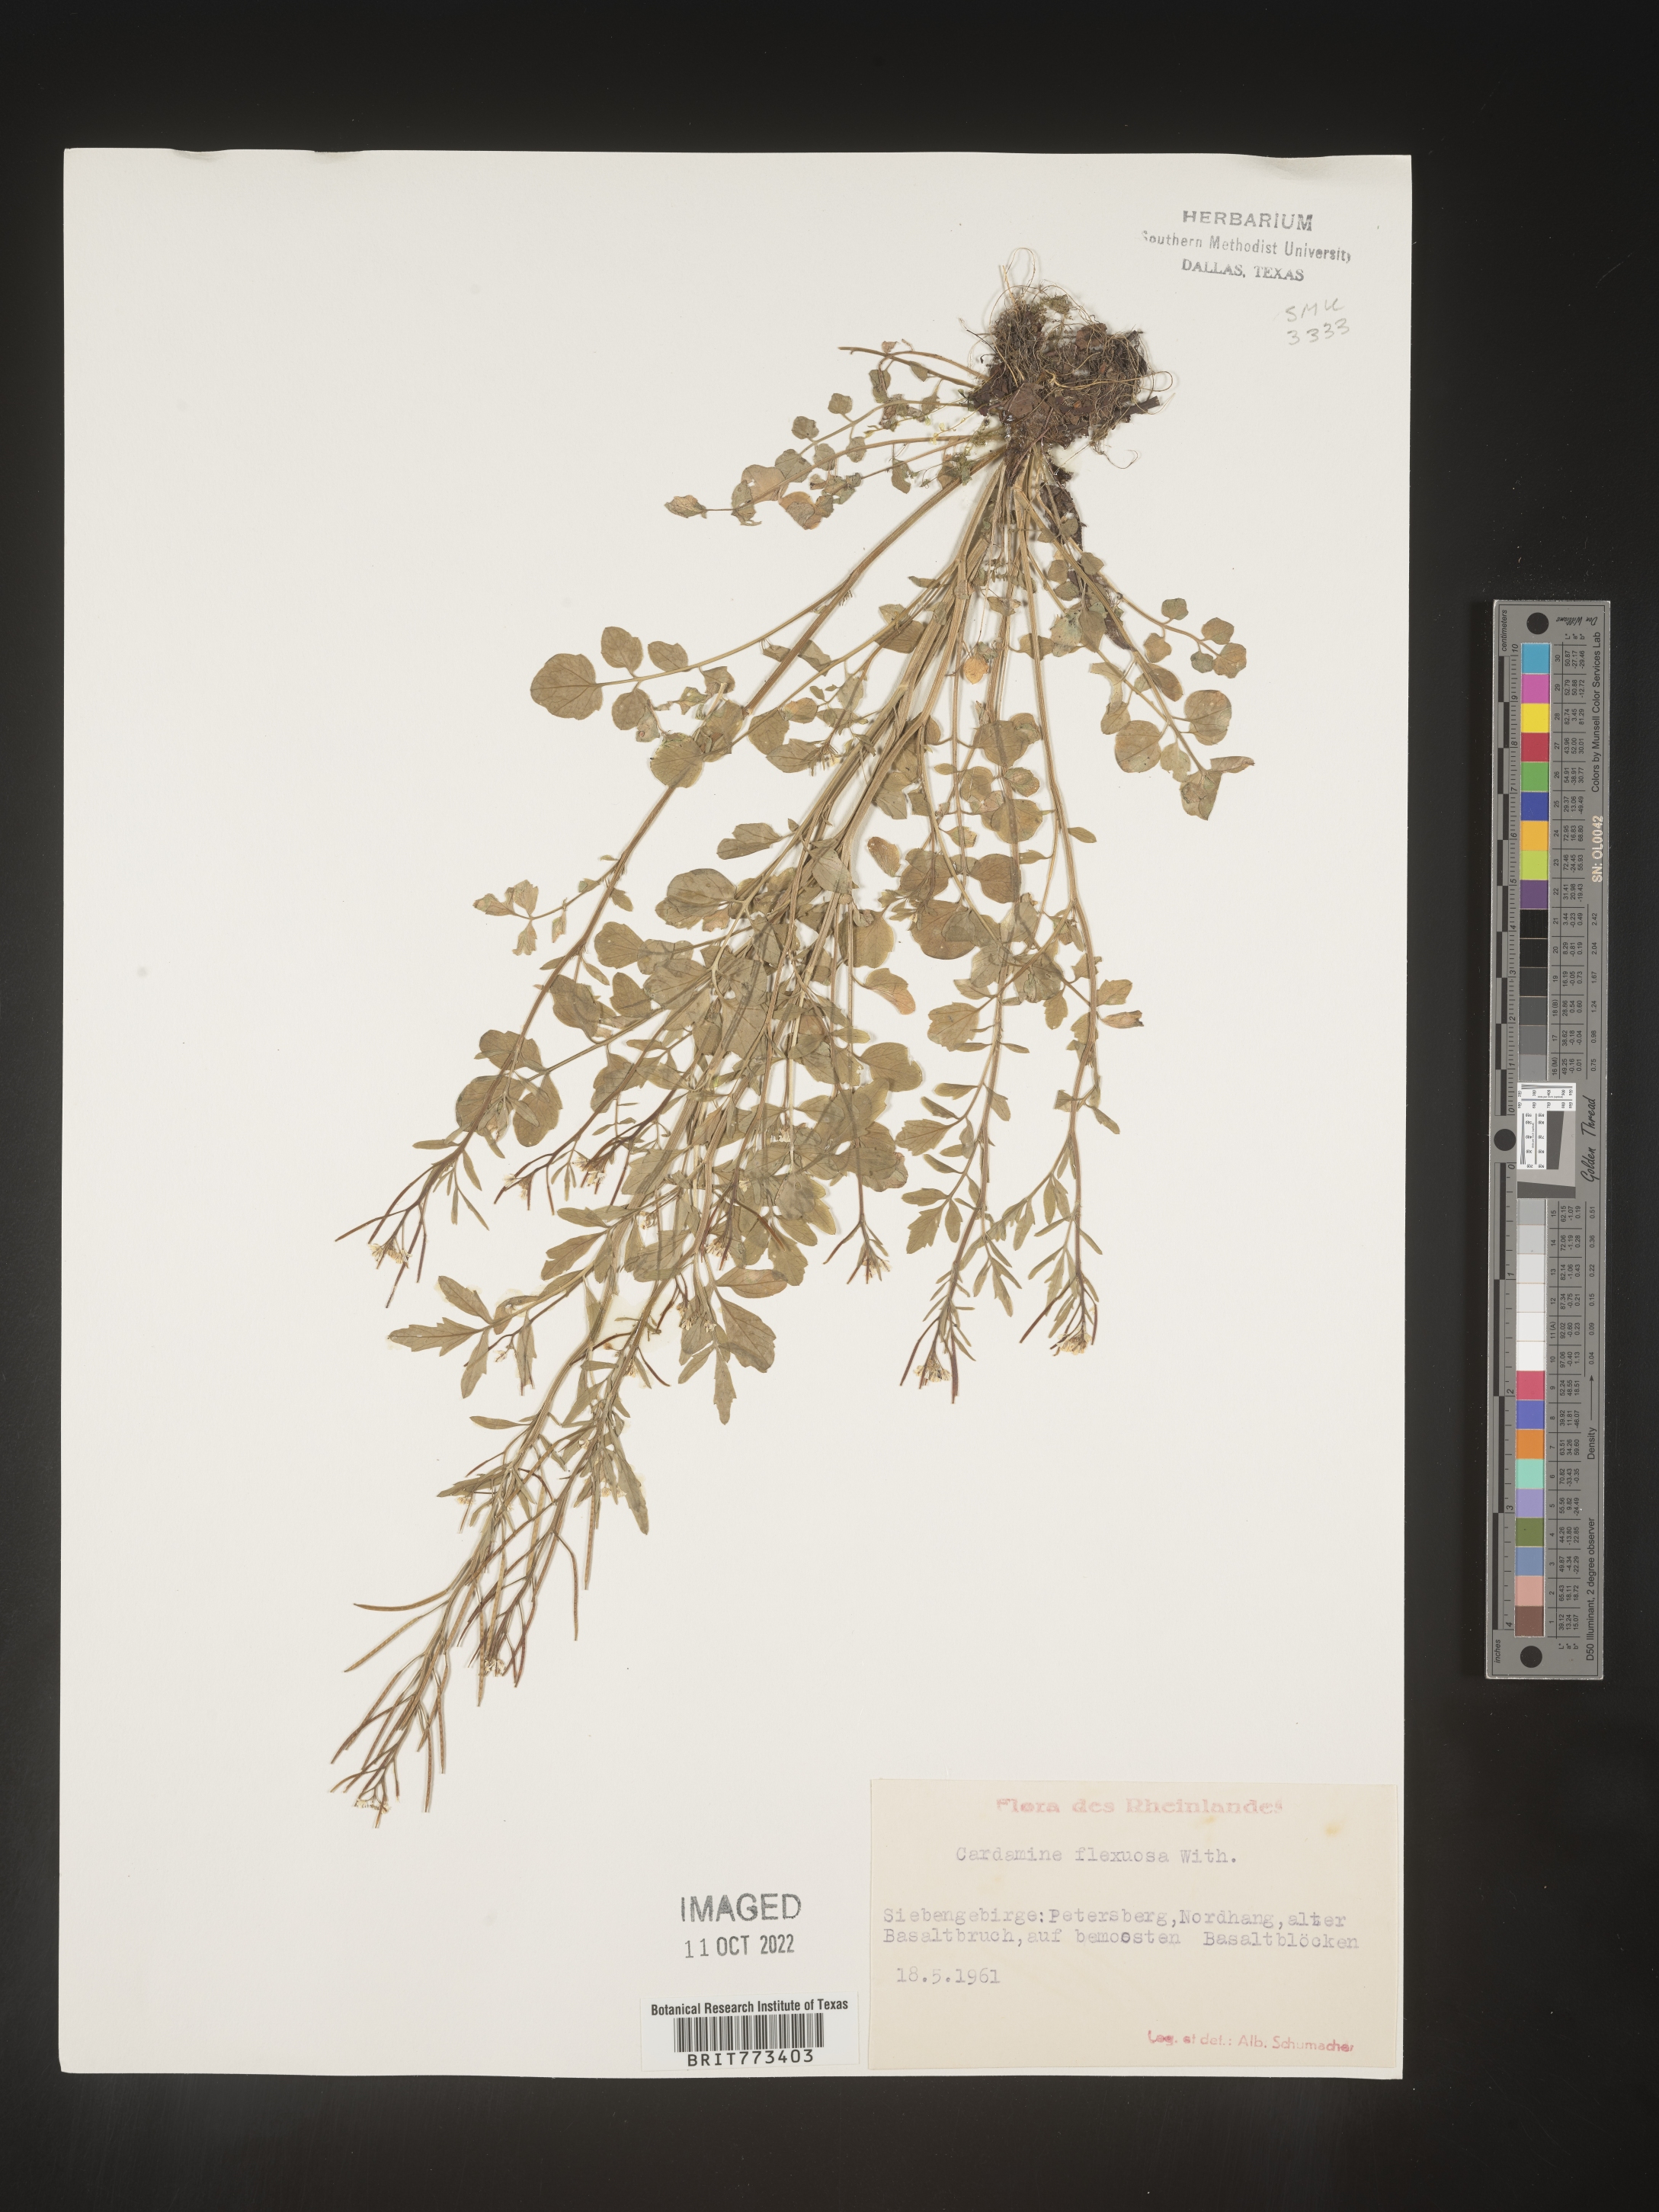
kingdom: Plantae
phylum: Tracheophyta
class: Magnoliopsida
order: Brassicales
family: Brassicaceae
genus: Cardamine
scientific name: Cardamine
